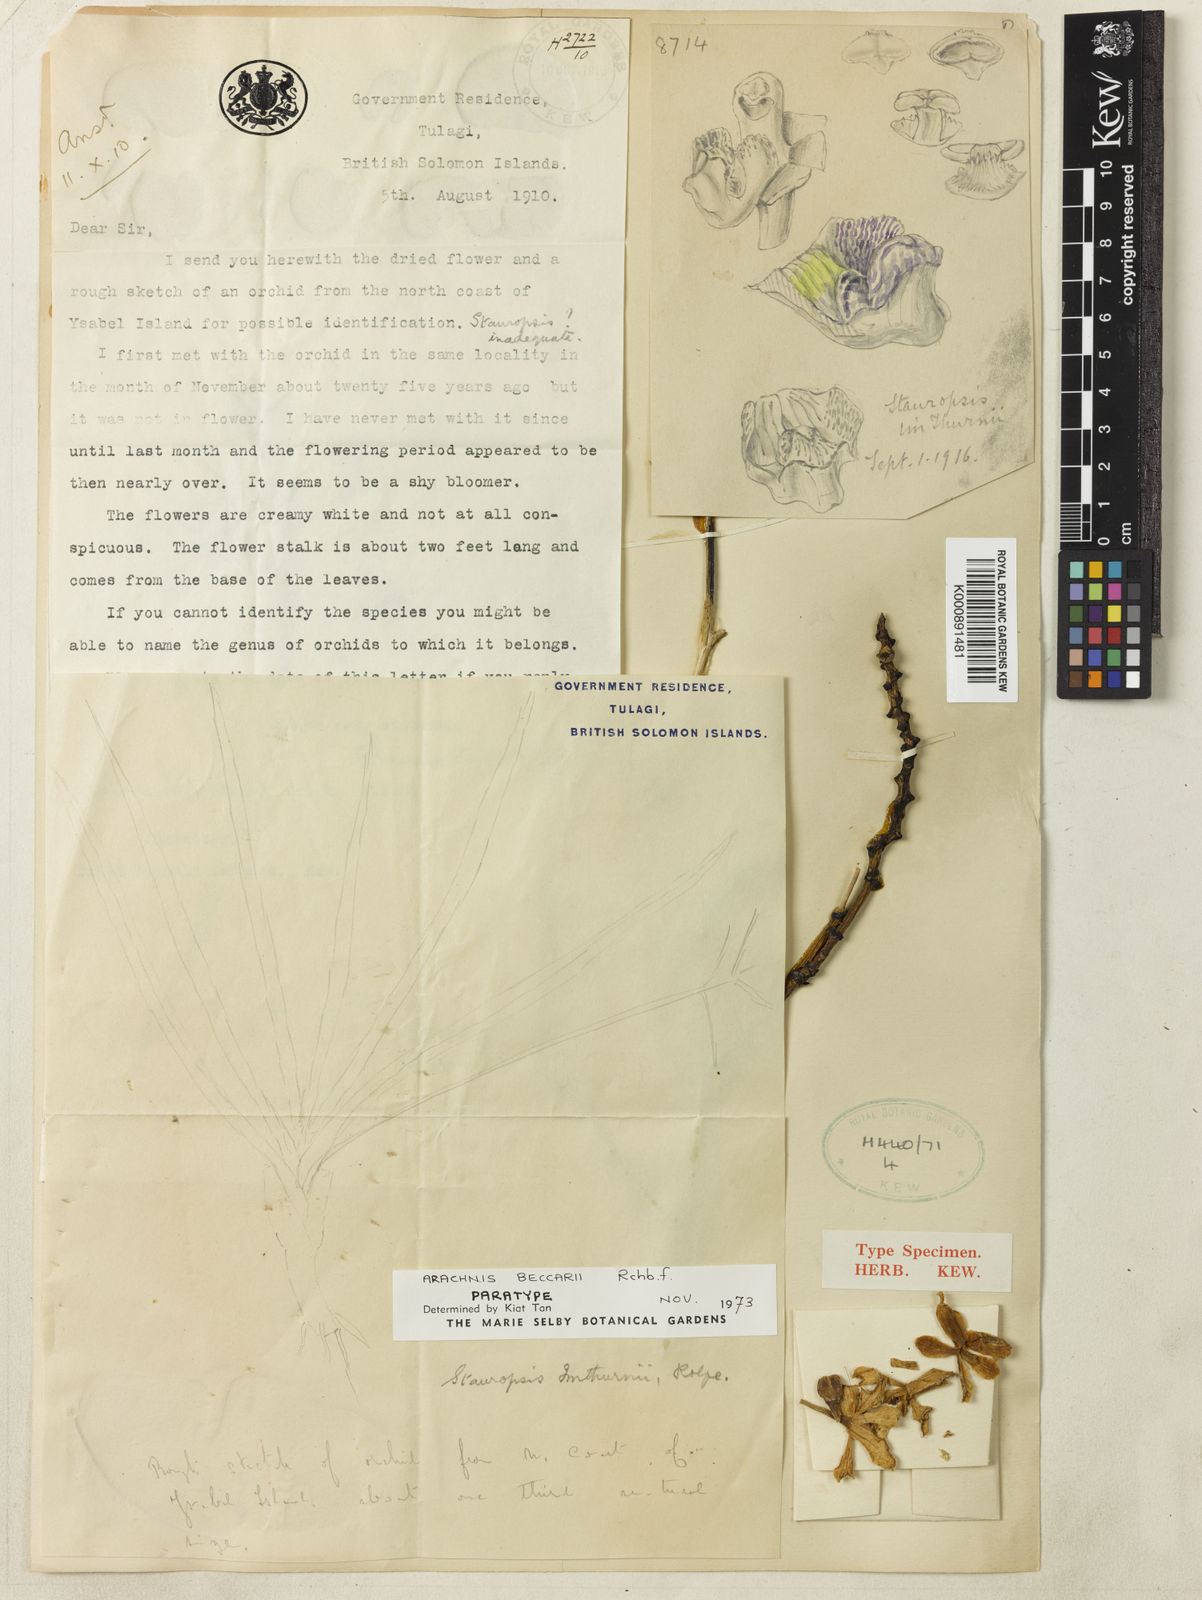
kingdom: Plantae
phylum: Tracheophyta
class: Liliopsida
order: Asparagales
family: Orchidaceae
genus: Dimorphorchis
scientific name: Dimorphorchis beccarii
